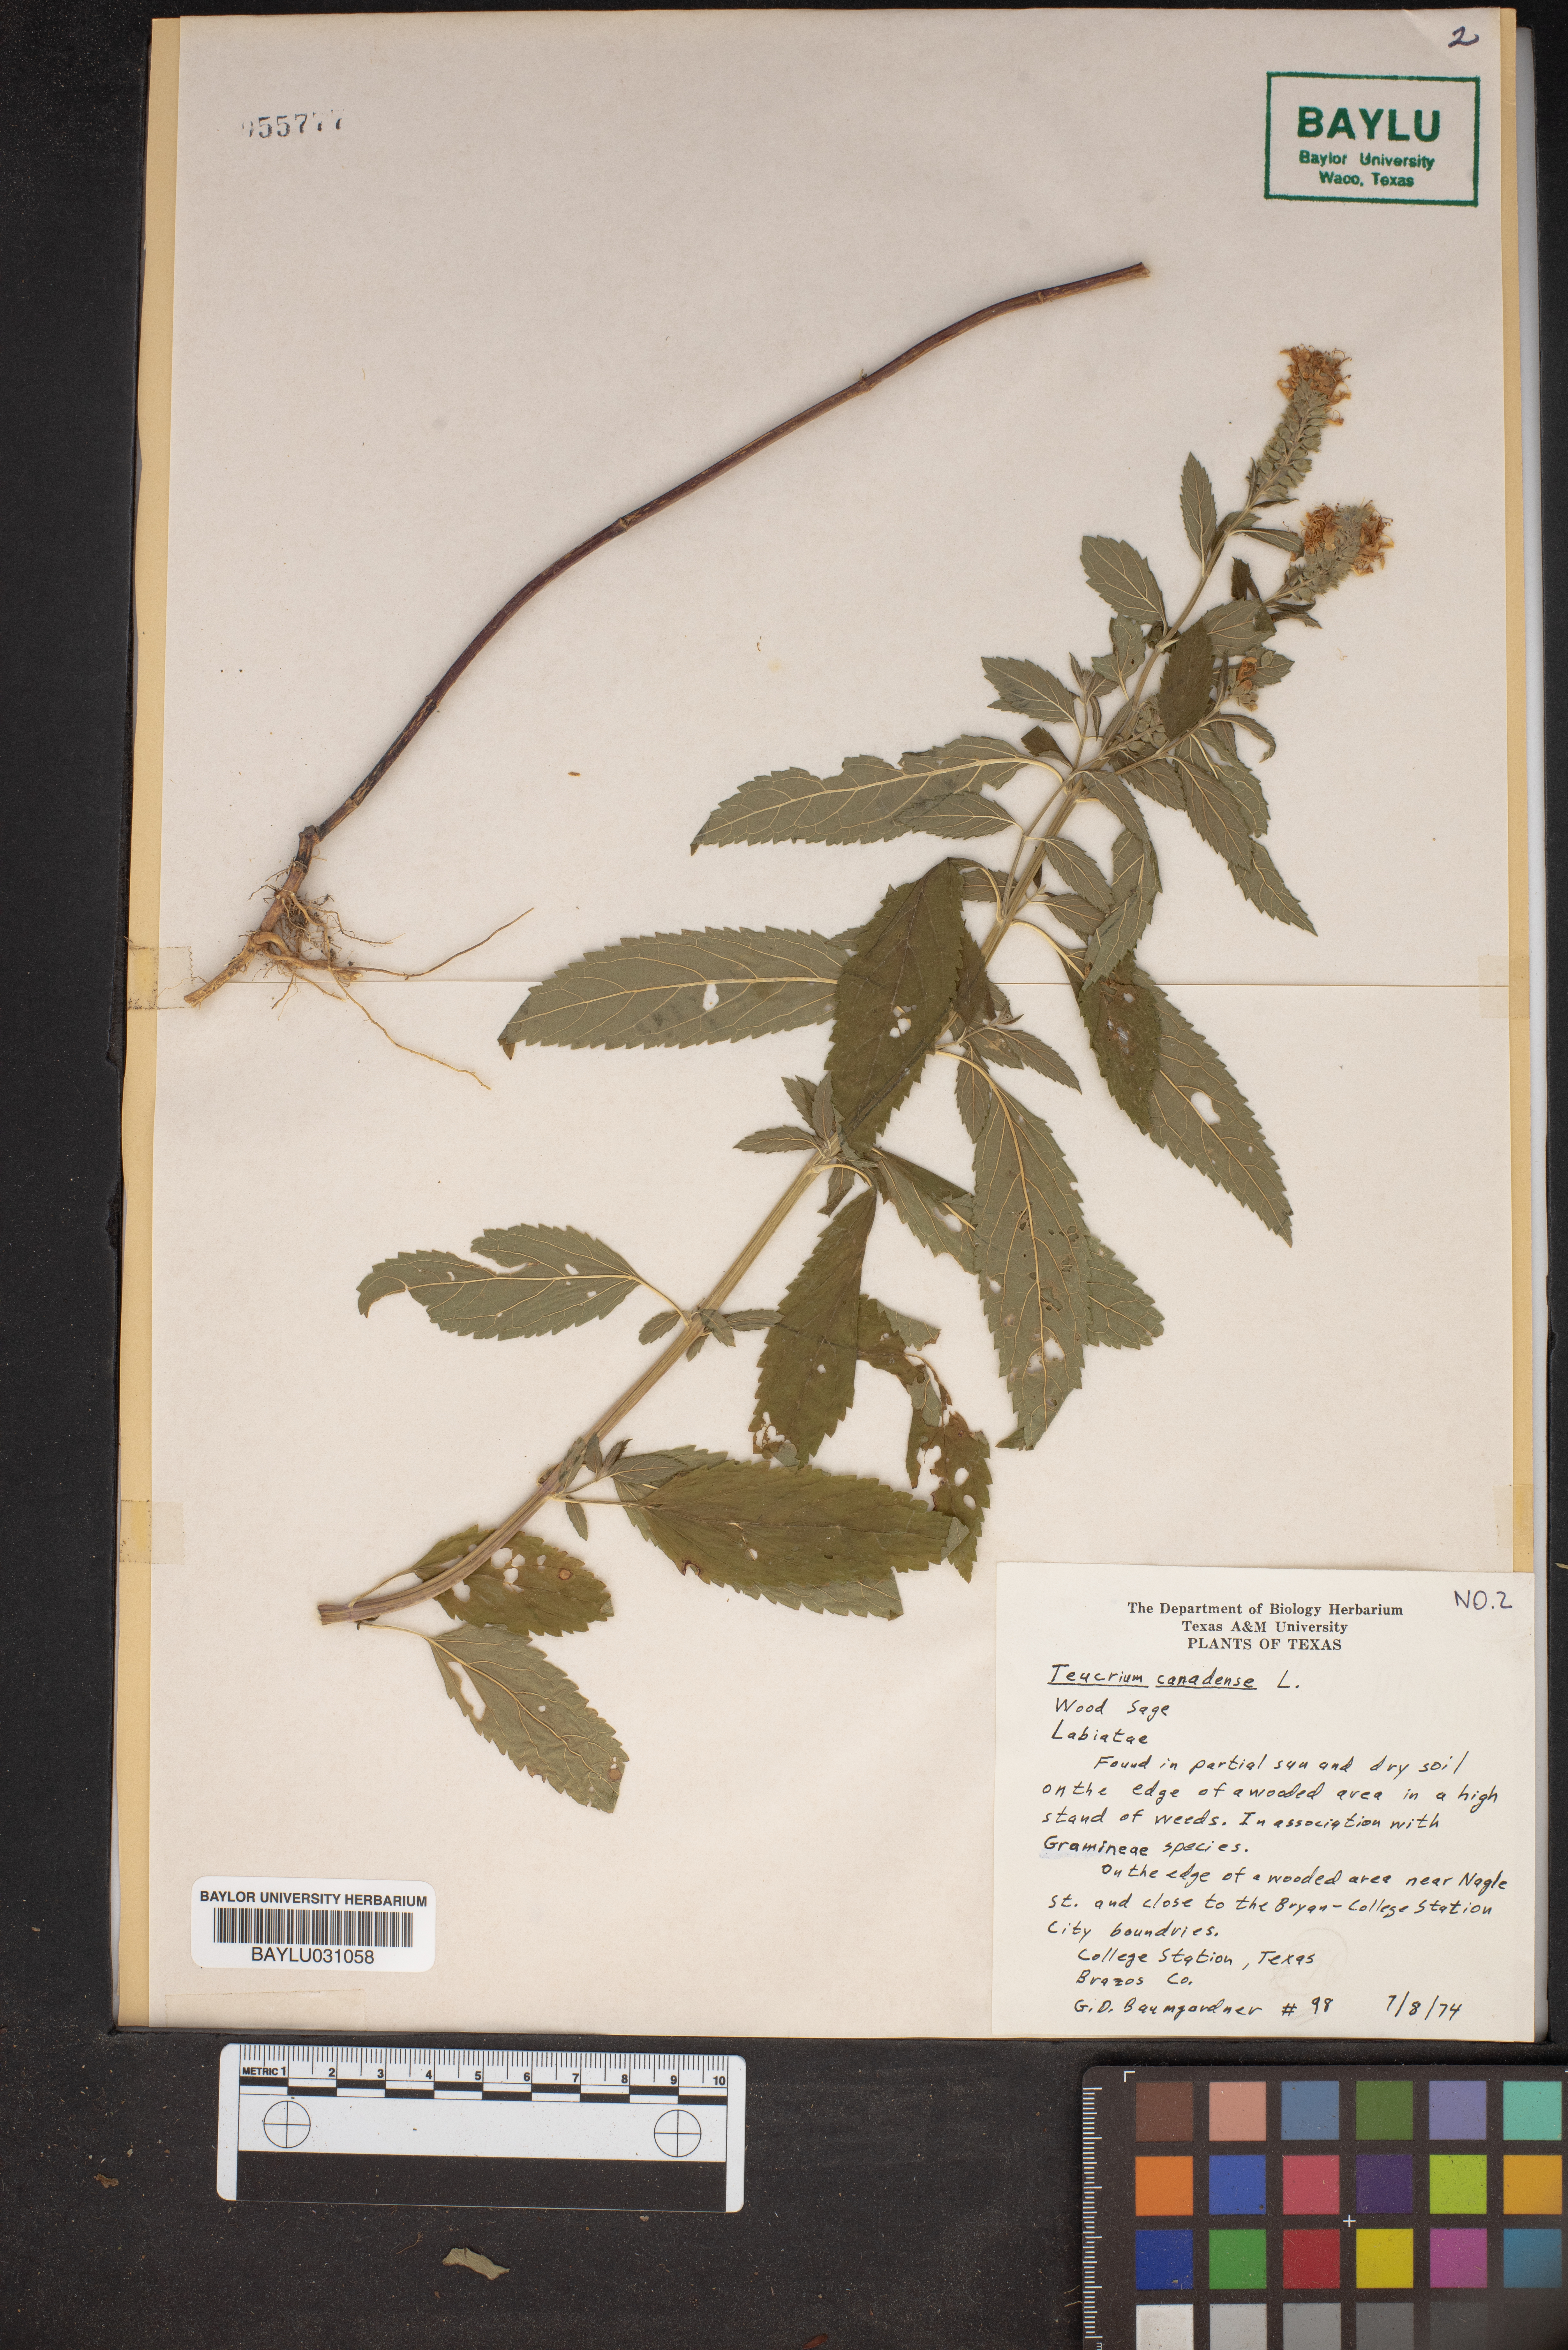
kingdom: Plantae
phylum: Tracheophyta
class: Magnoliopsida
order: Lamiales
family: Lamiaceae
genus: Teucrium
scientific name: Teucrium canadense
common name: American germander
